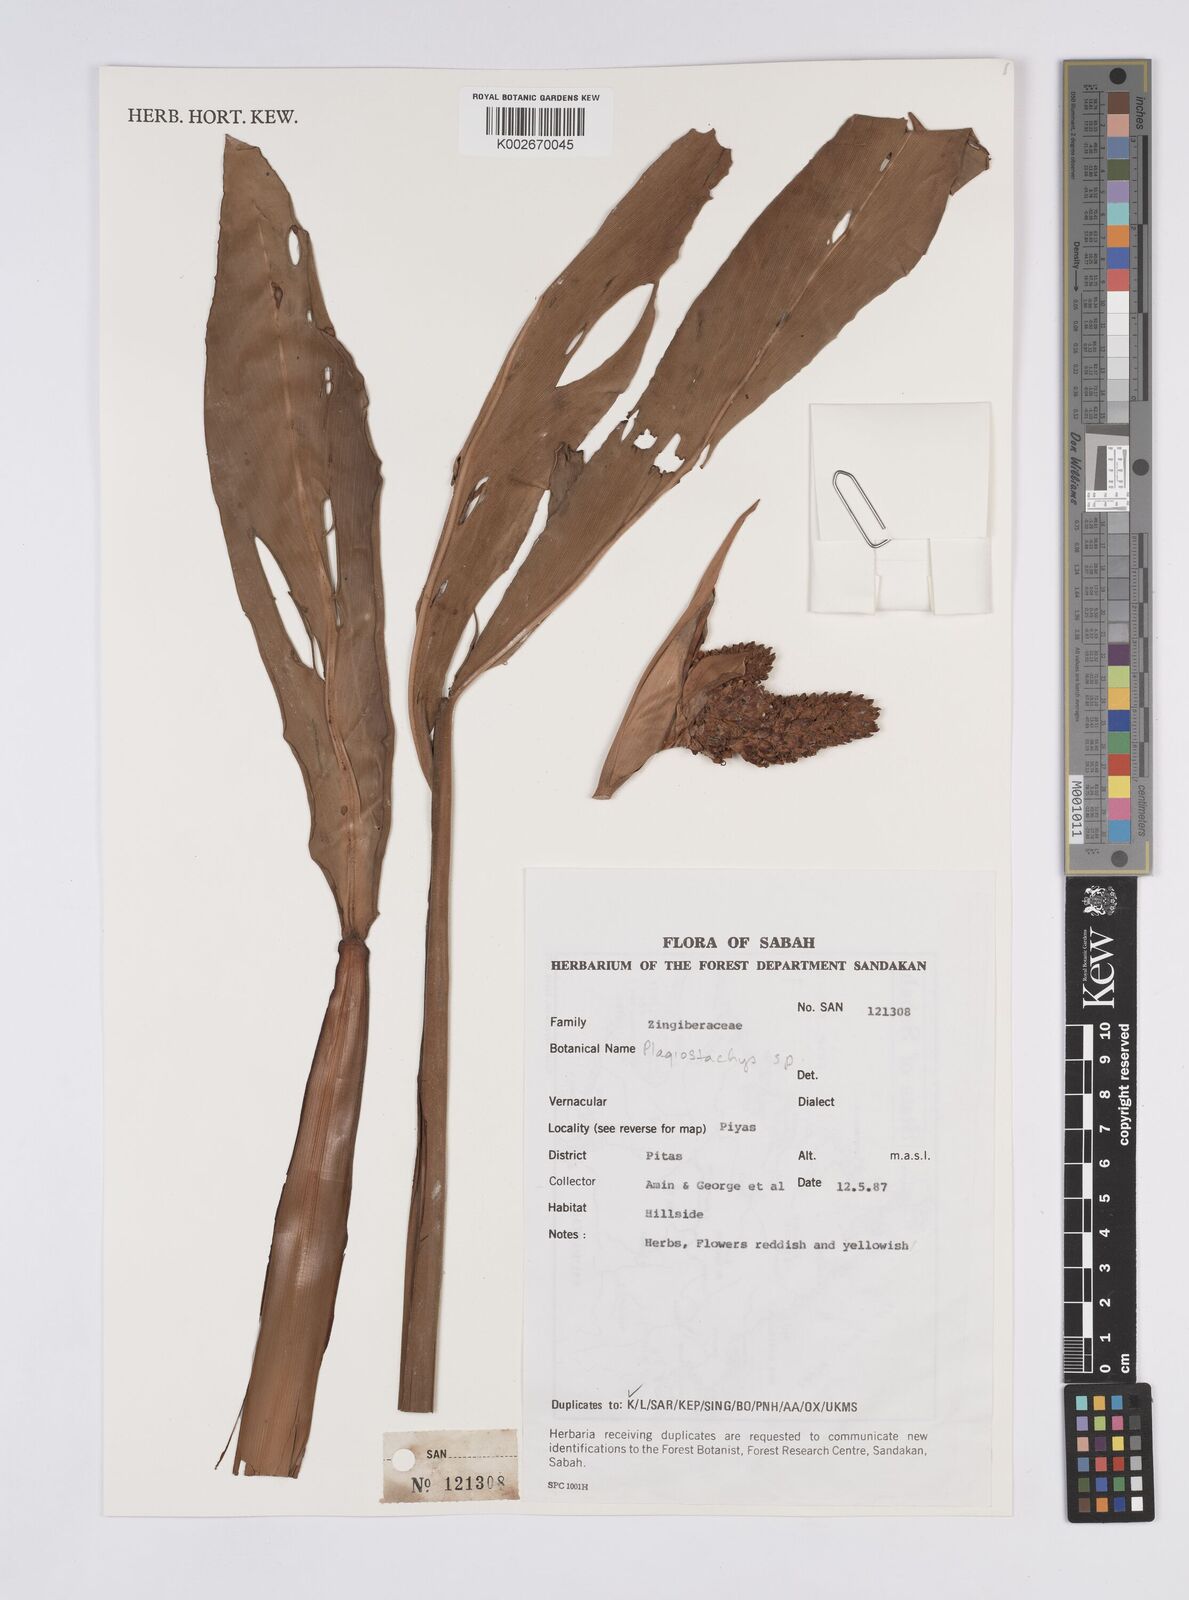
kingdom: Plantae
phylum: Tracheophyta
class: Liliopsida
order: Zingiberales
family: Zingiberaceae
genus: Plagiostachys
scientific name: Plagiostachys
